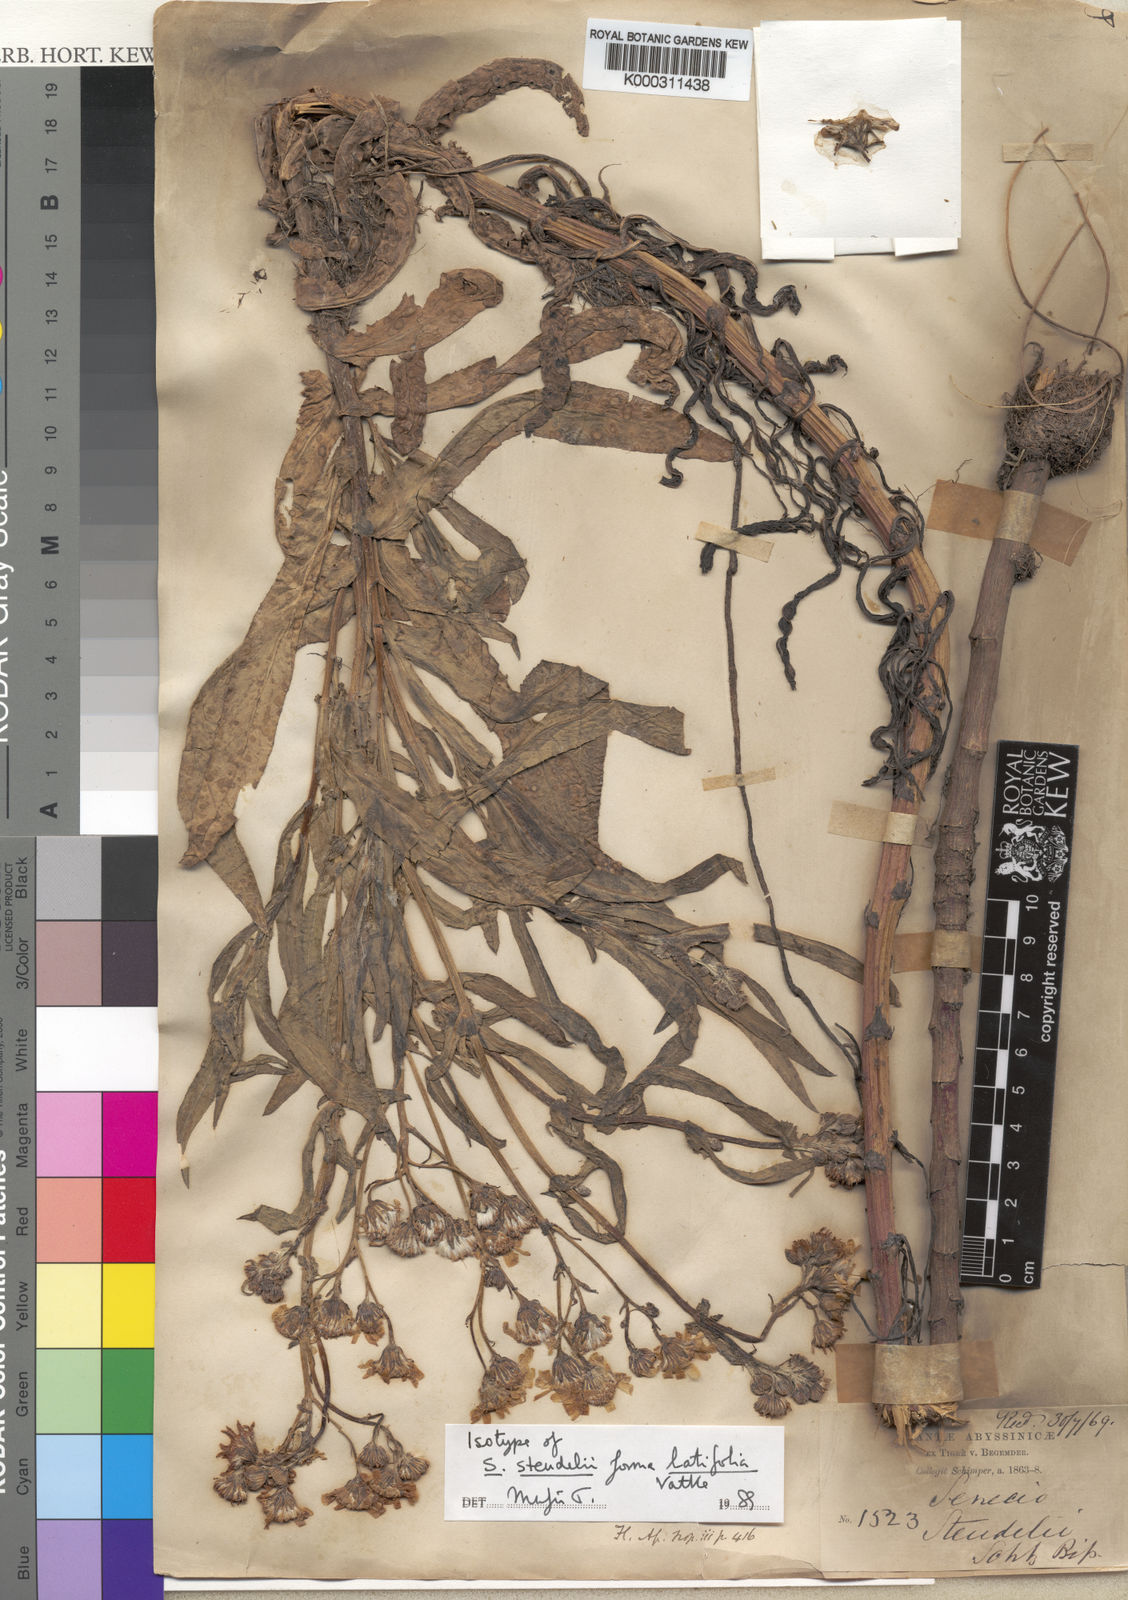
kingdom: Plantae
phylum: Tracheophyta
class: Magnoliopsida
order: Asterales
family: Asteraceae
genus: Senecio
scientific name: Senecio steudelii
